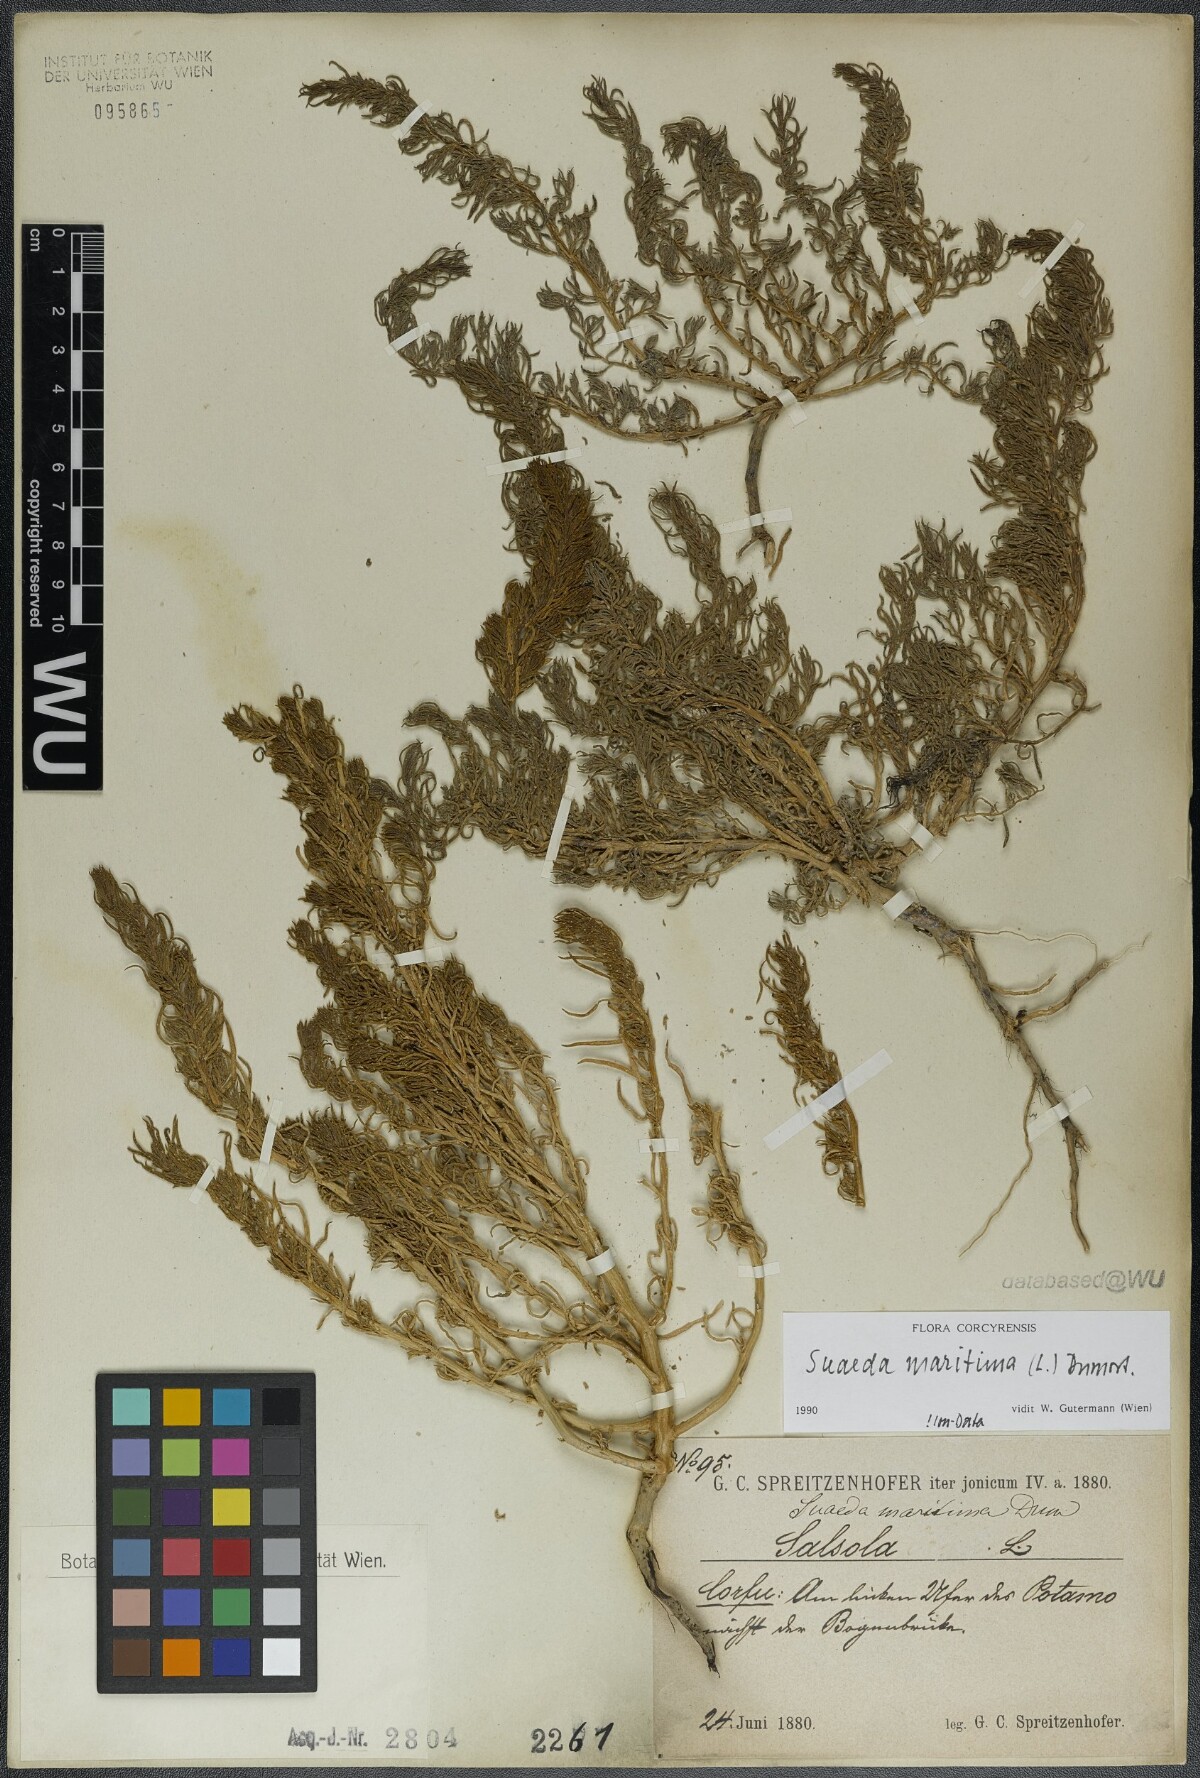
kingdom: Plantae
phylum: Tracheophyta
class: Magnoliopsida
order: Caryophyllales
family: Amaranthaceae
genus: Suaeda
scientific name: Suaeda maritima
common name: Annual sea-blite
